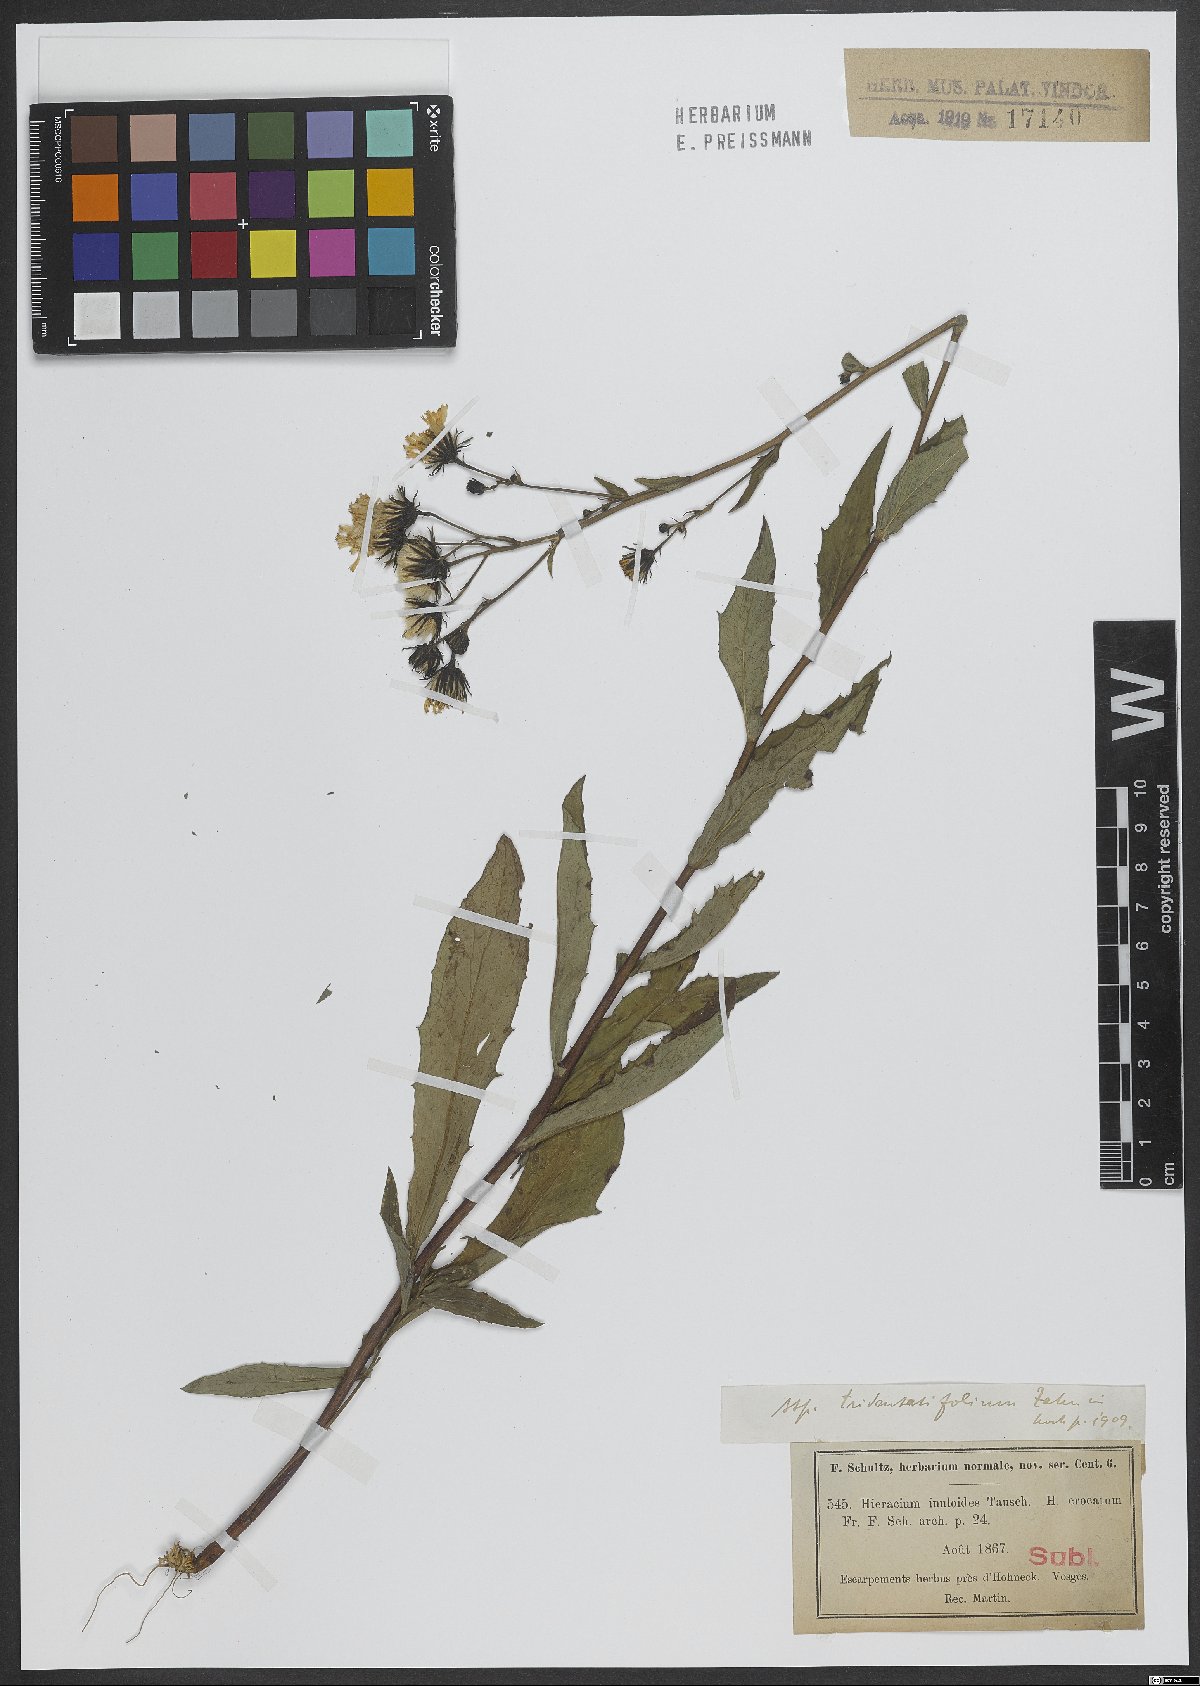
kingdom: Plantae
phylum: Tracheophyta
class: Magnoliopsida
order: Asterales
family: Asteraceae
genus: Hieracium
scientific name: Hieracium inuloides
